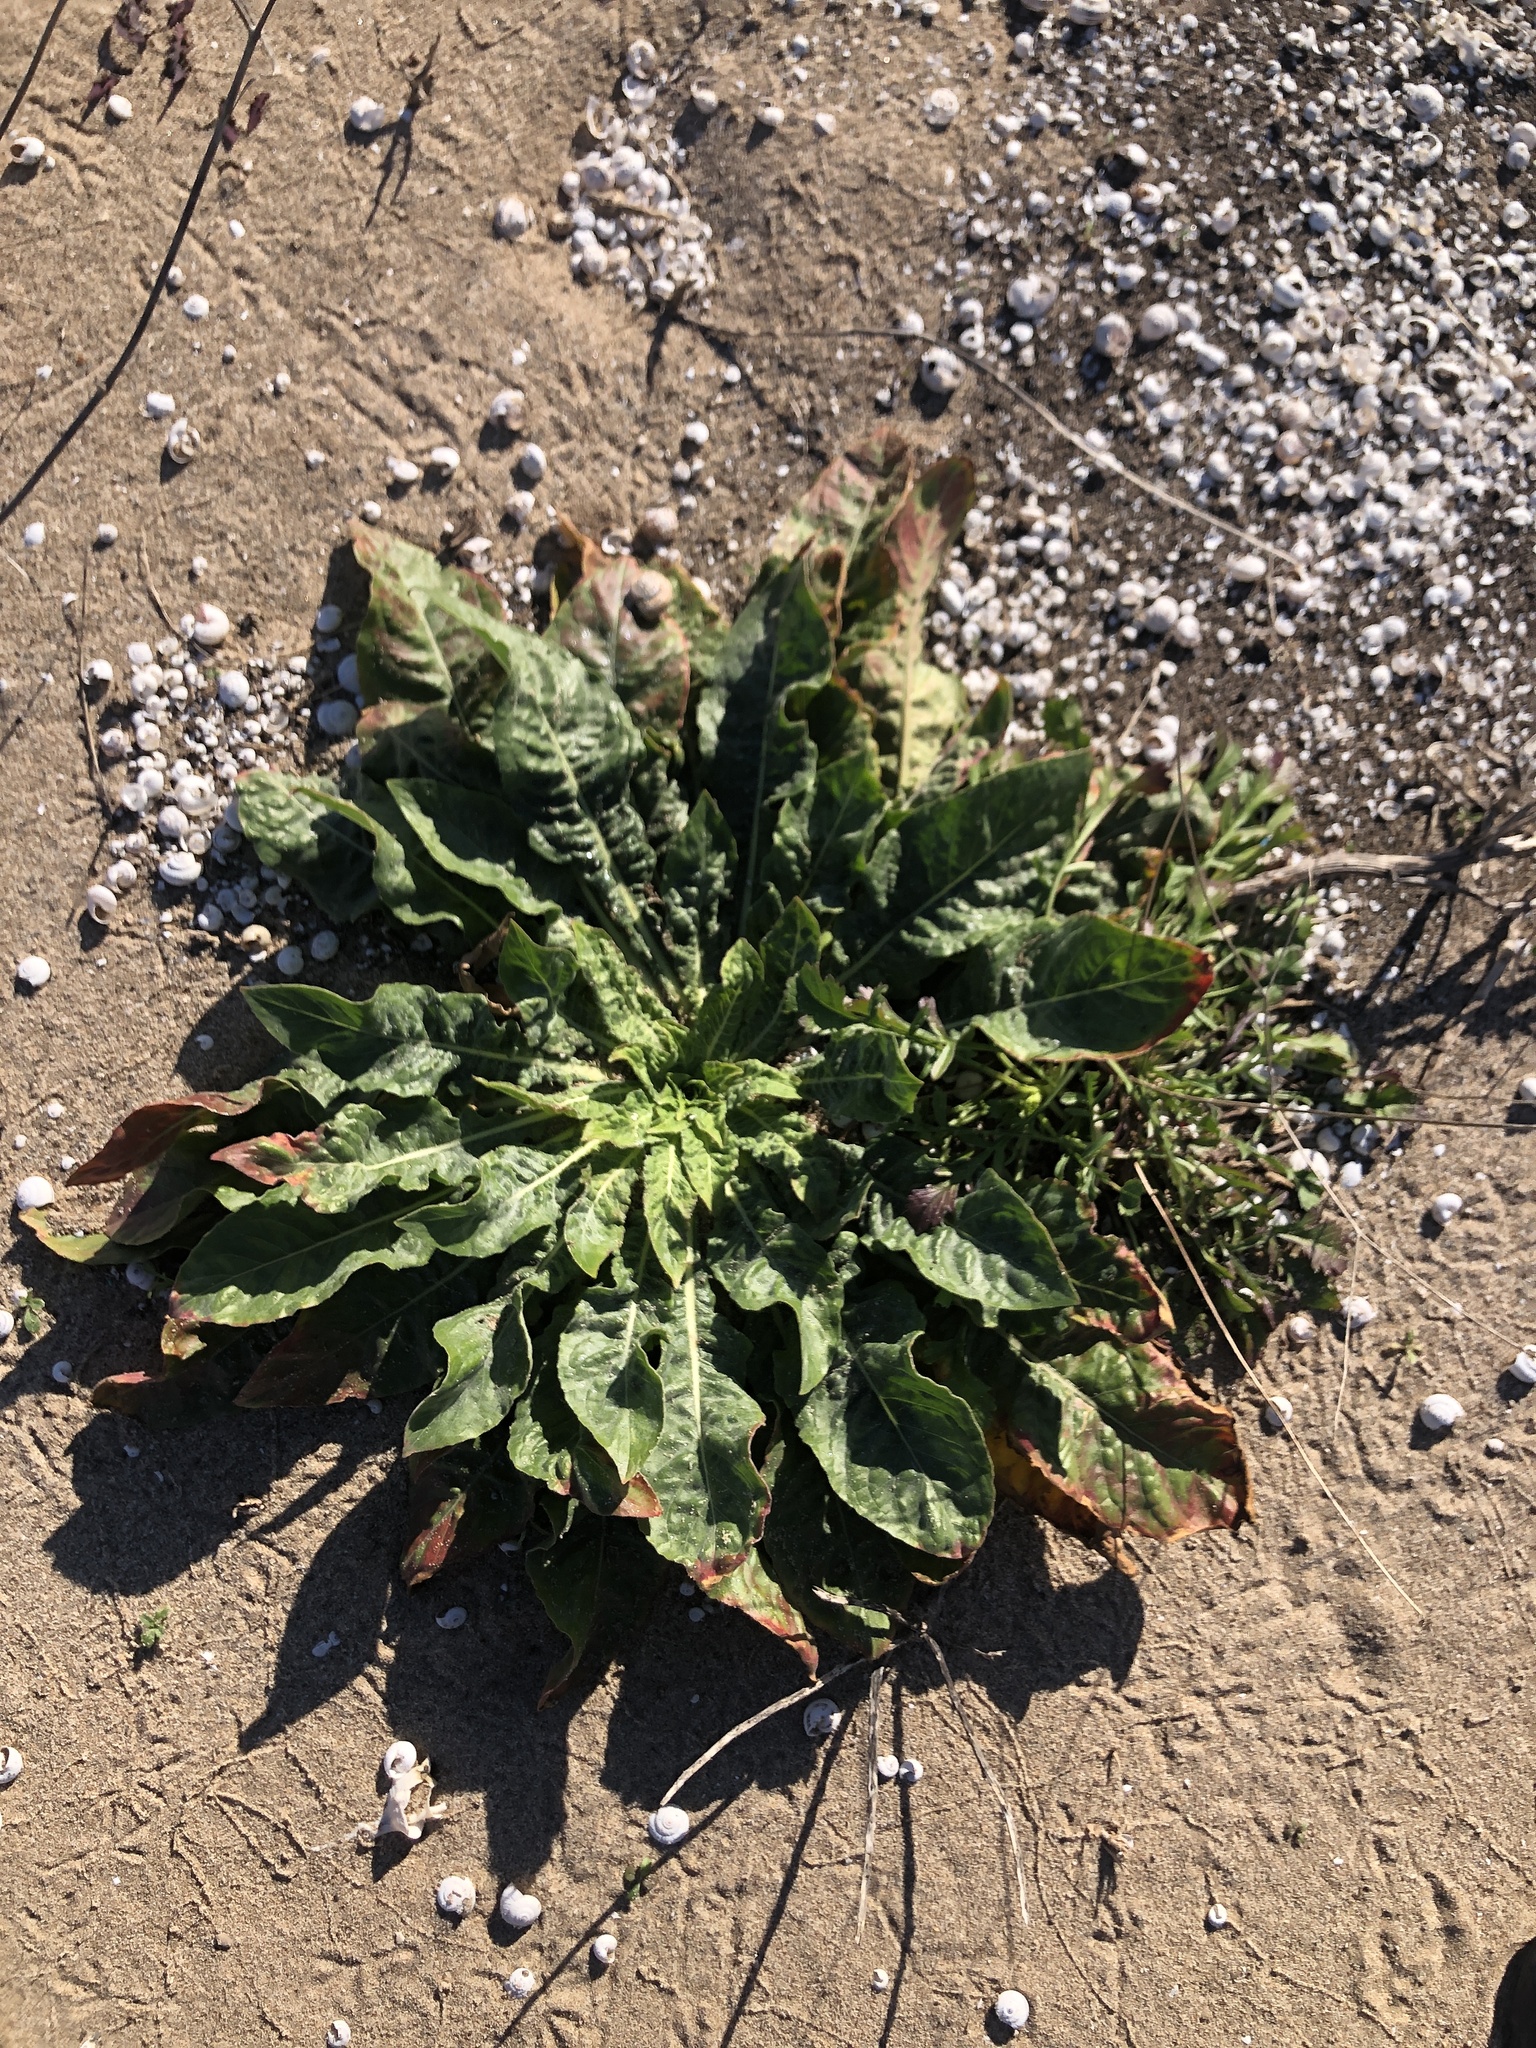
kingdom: Plantae
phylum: Tracheophyta
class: Magnoliopsida
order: Myrtales
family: Onagraceae
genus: Oenothera
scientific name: Oenothera glazioviana
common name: Large-flowered evening-primrose
